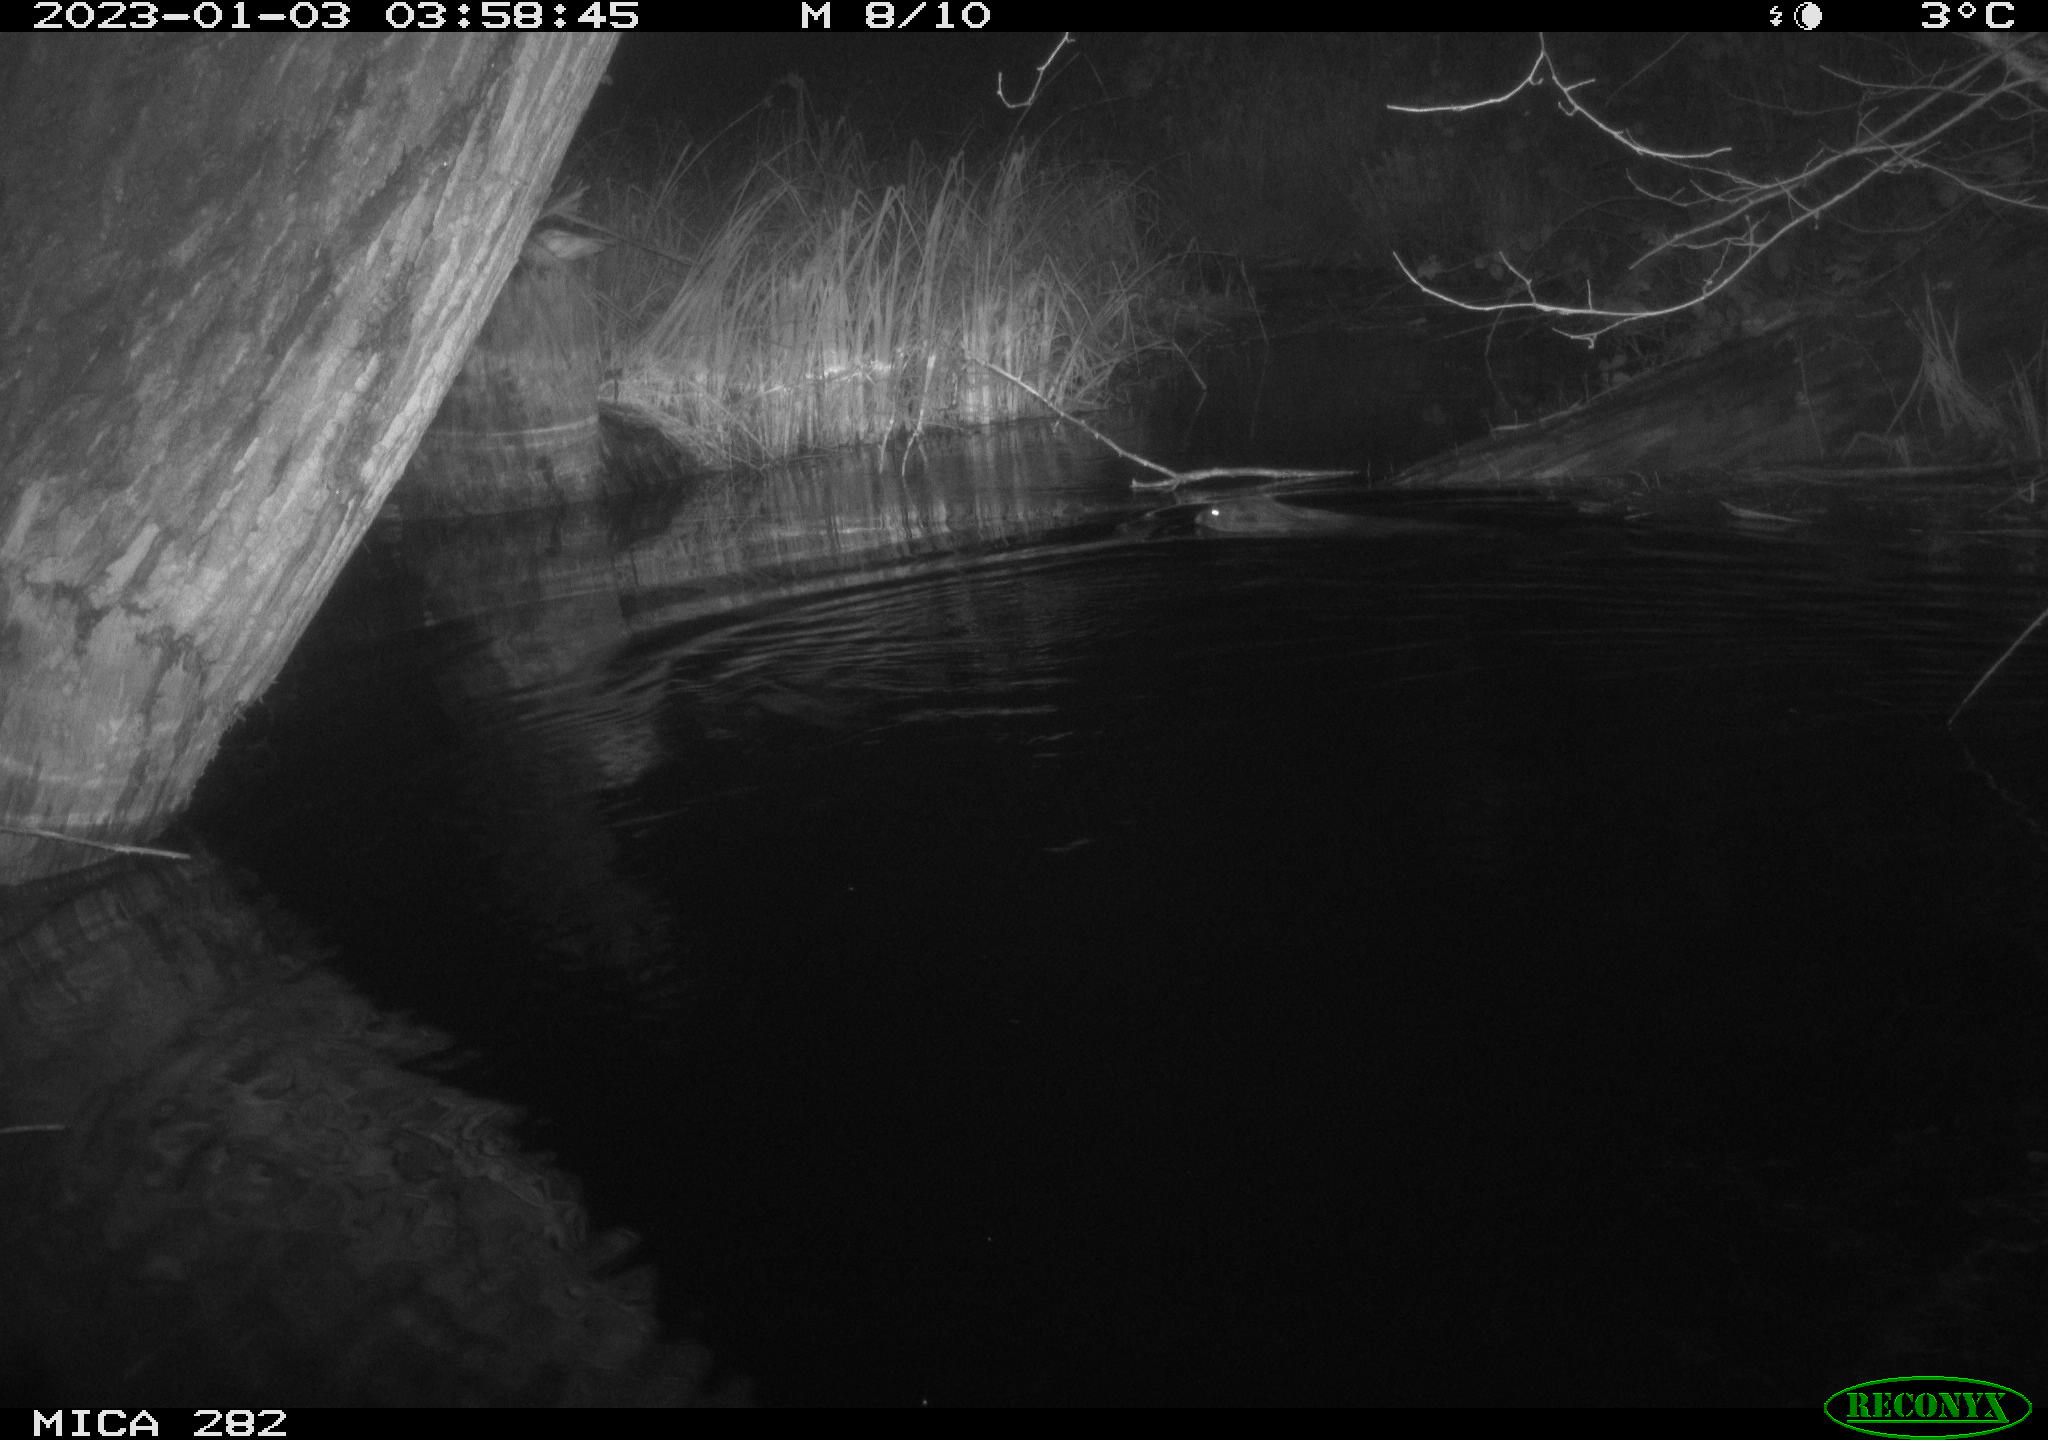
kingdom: Animalia
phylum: Chordata
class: Mammalia
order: Rodentia
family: Castoridae
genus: Castor
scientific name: Castor fiber
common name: Eurasian beaver
